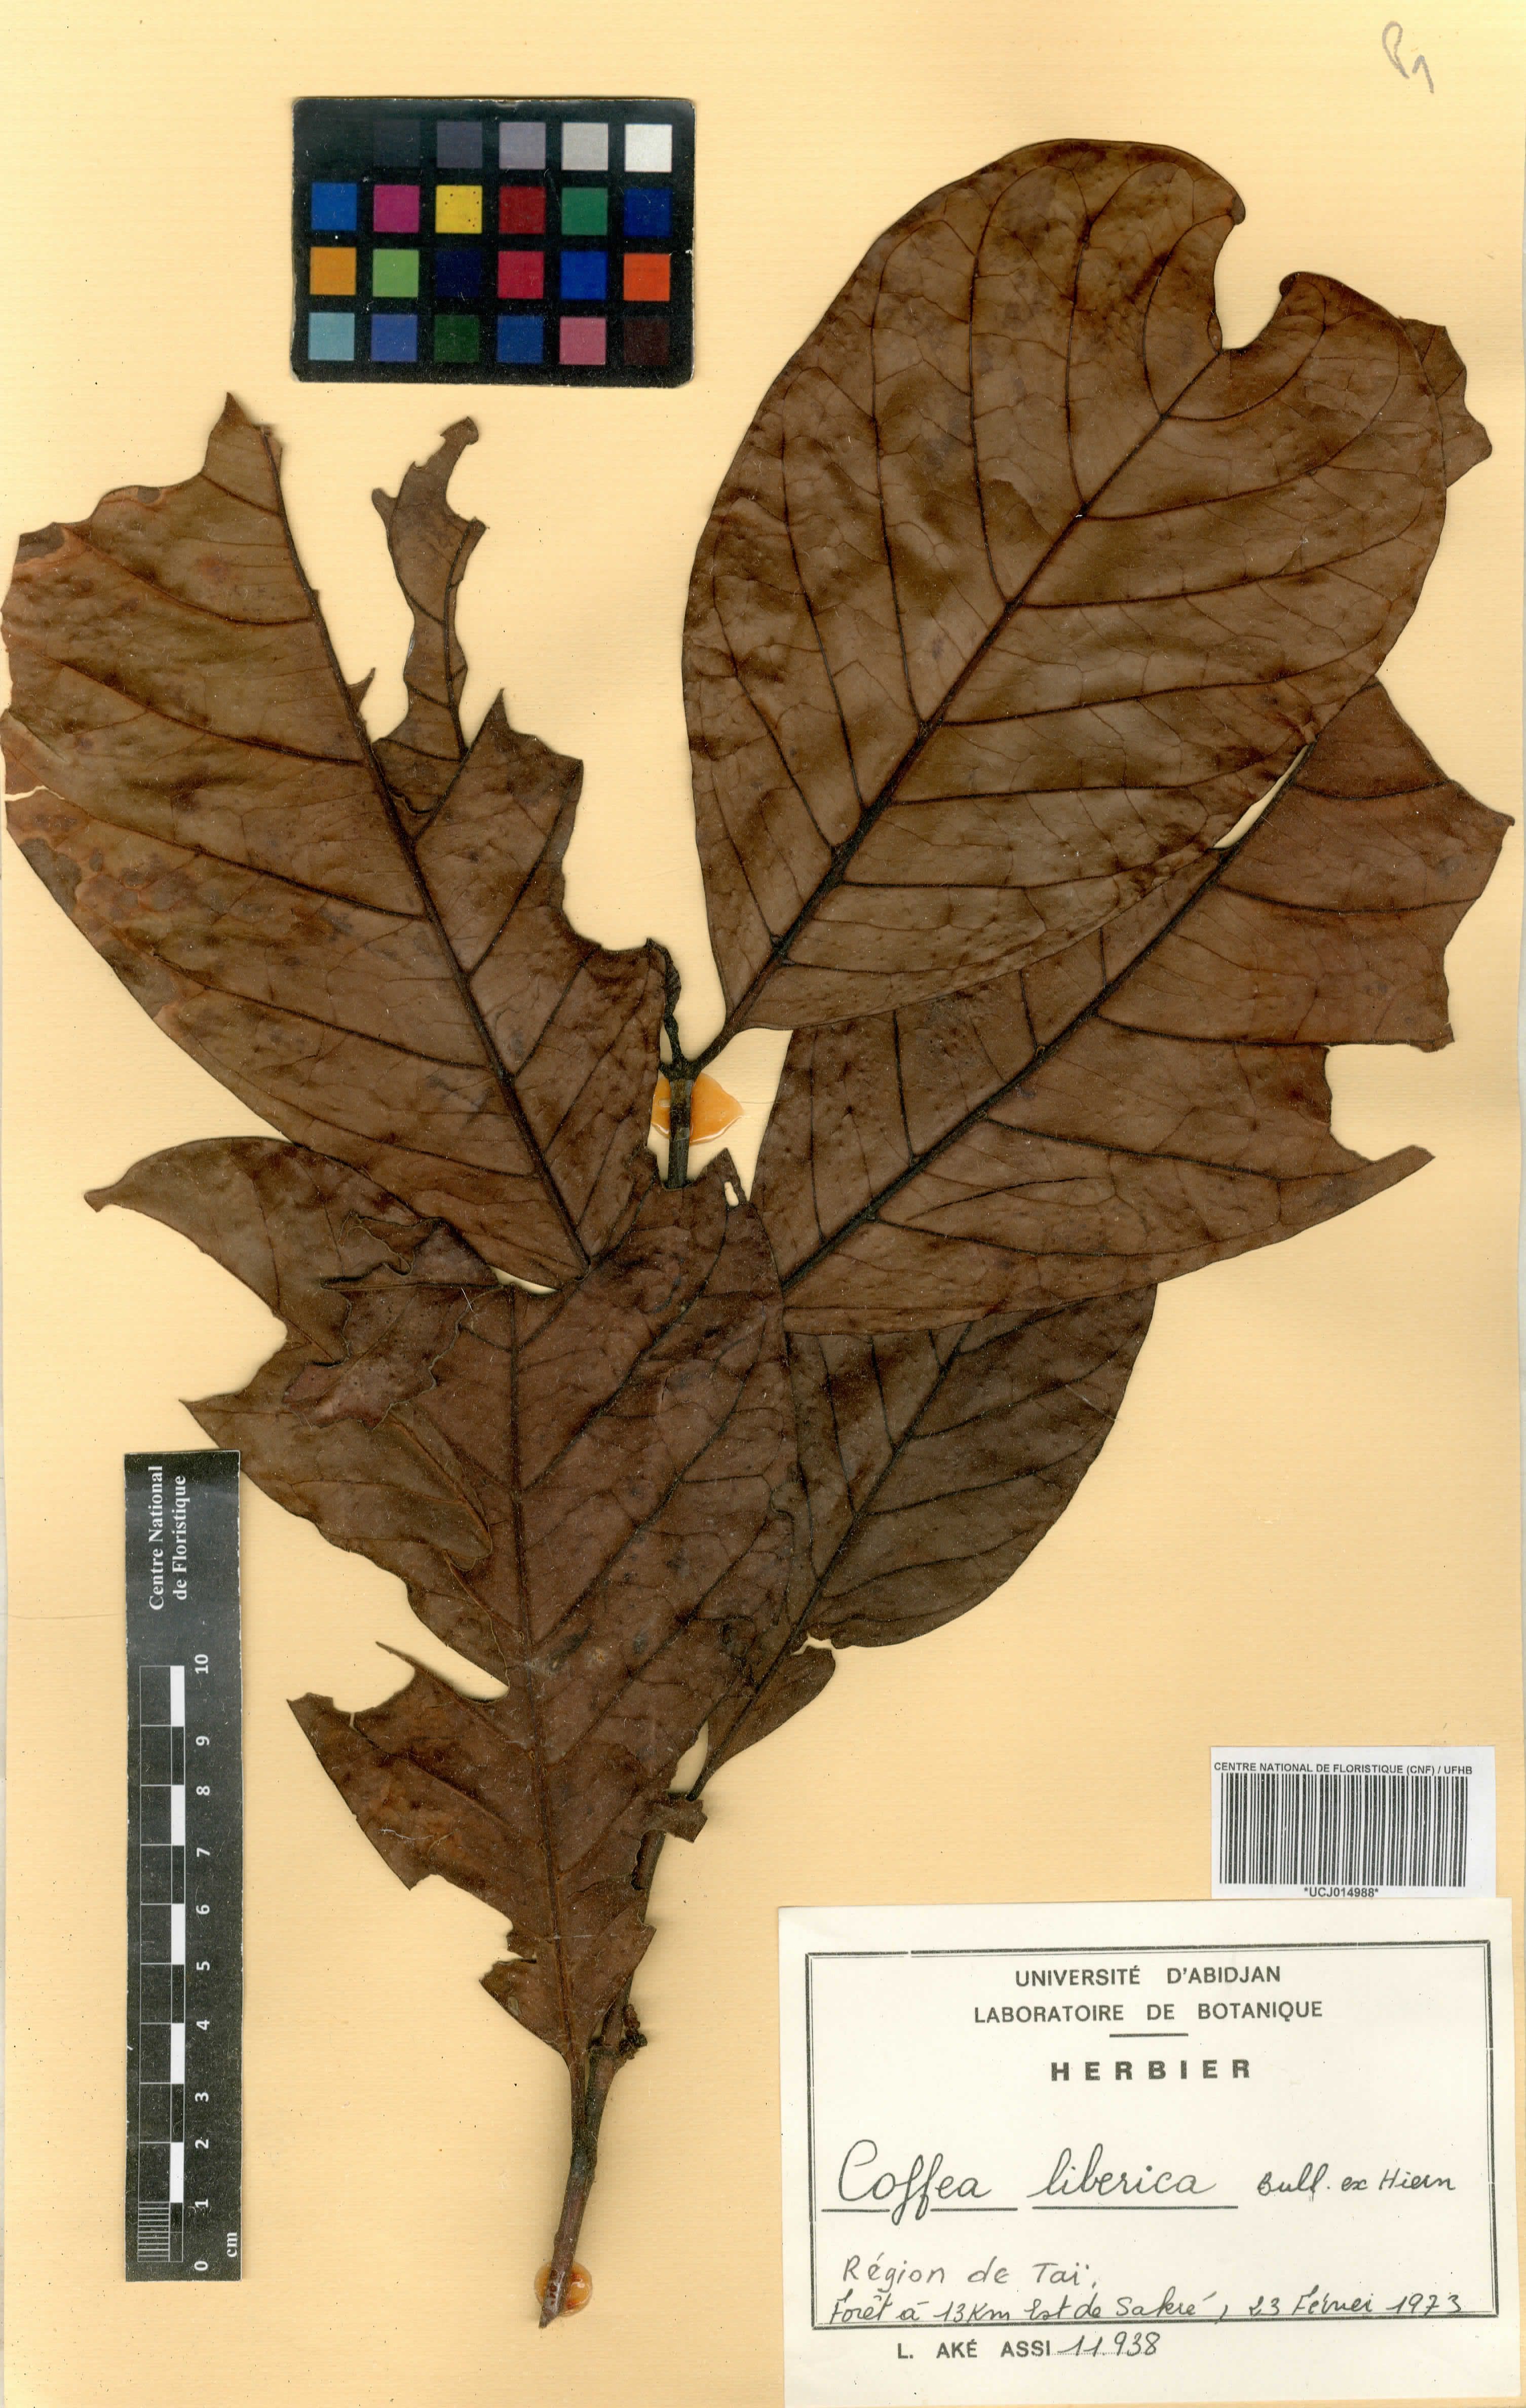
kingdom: Plantae
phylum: Tracheophyta
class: Magnoliopsida
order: Gentianales
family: Rubiaceae
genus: Coffea
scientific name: Coffea liberica
